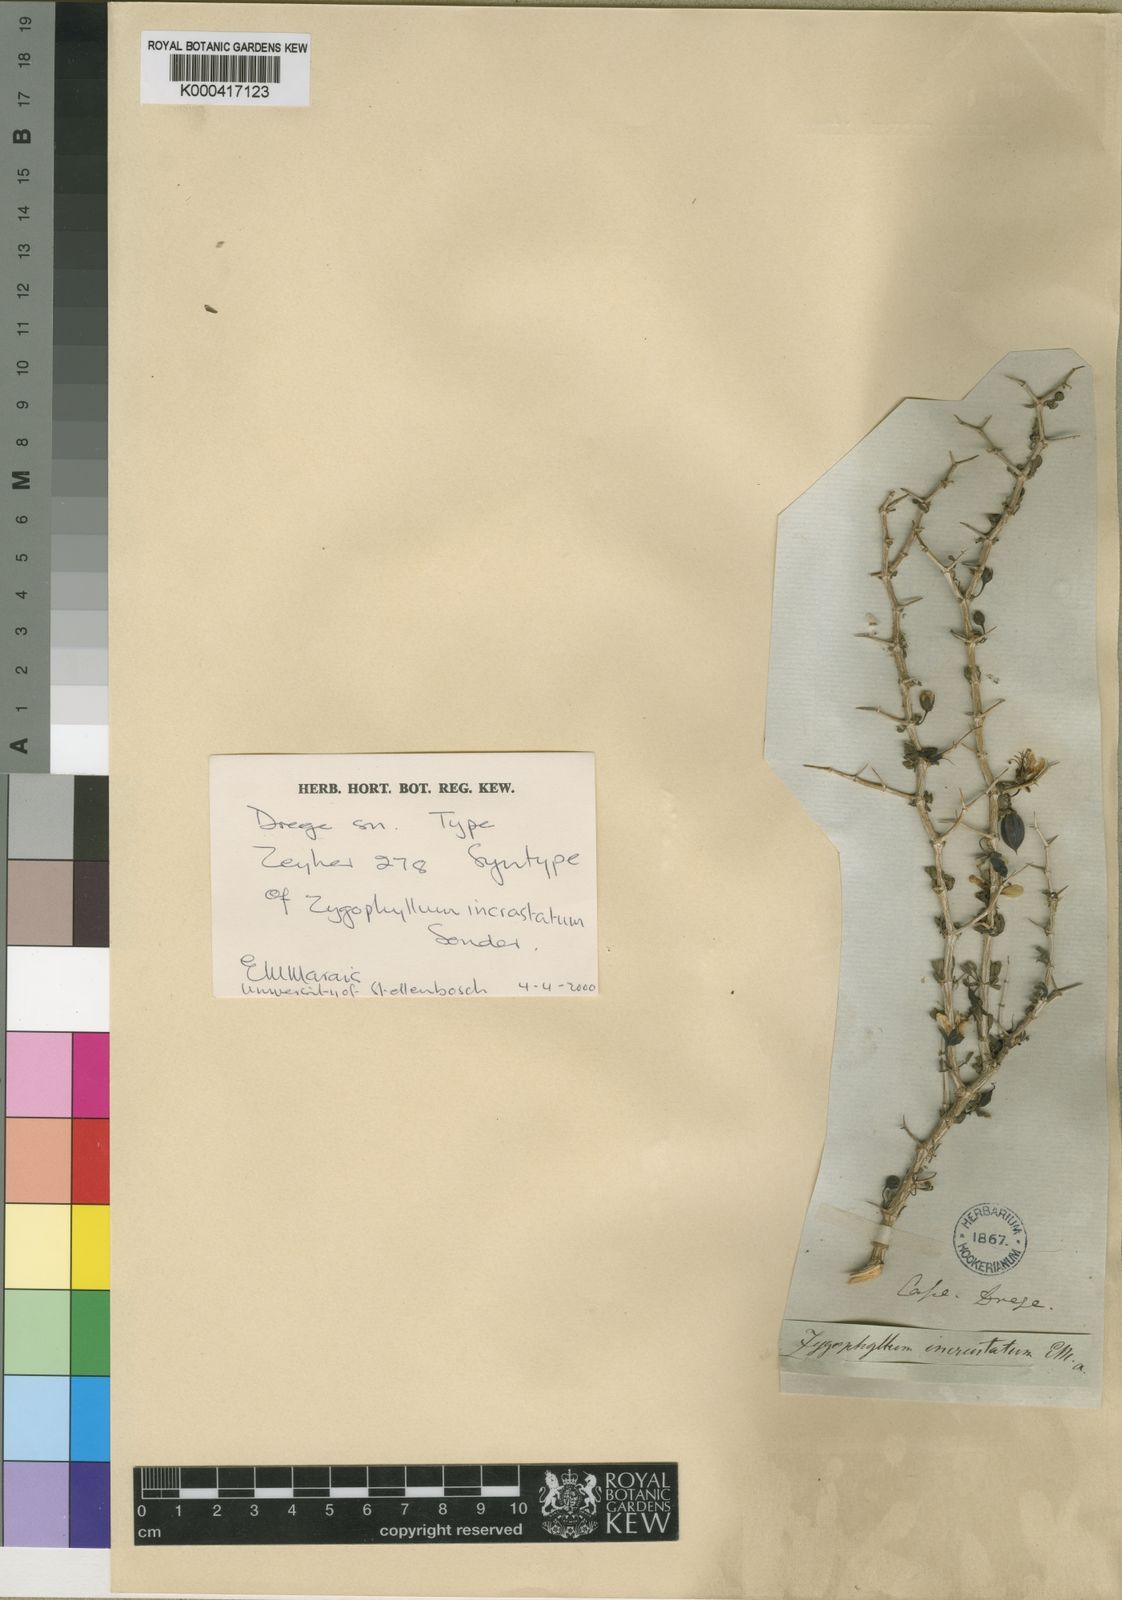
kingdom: Plantae
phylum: Tracheophyta
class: Magnoliopsida
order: Zygophyllales
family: Zygophyllaceae
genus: Roepera
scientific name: Roepera incrustata
